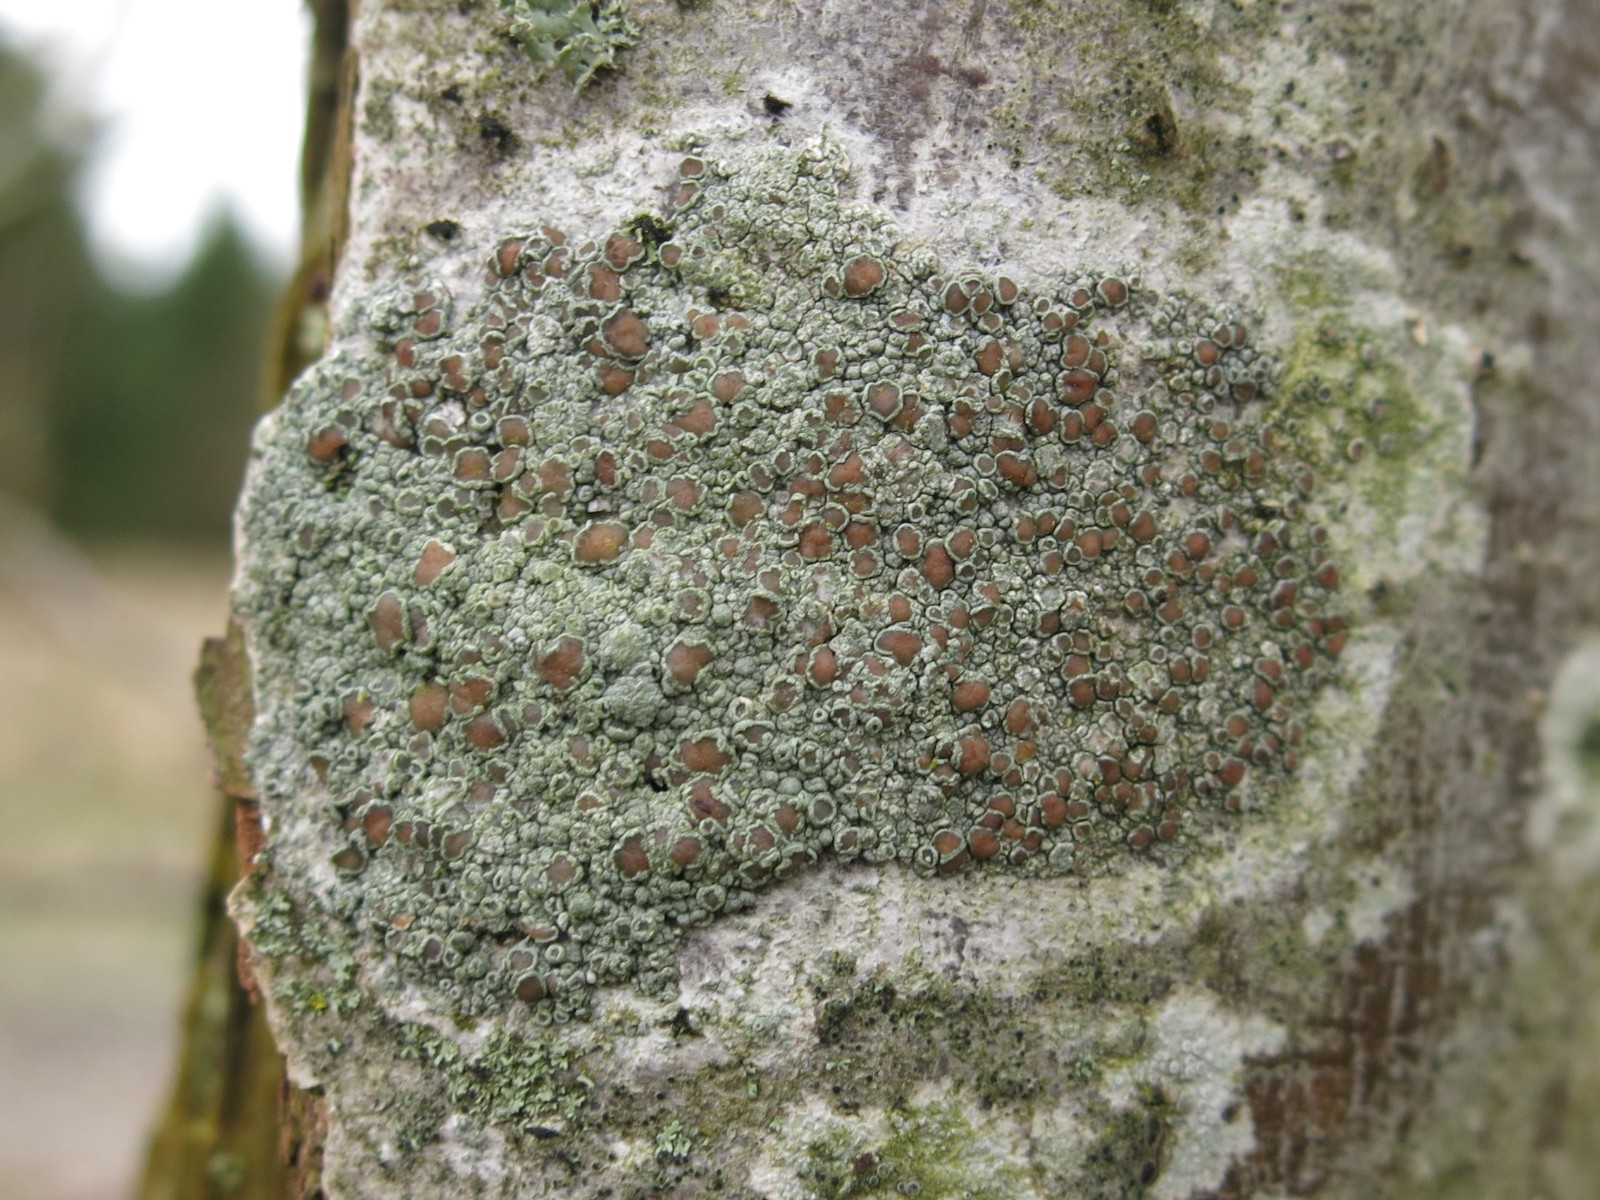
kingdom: Fungi
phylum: Ascomycota
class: Lecanoromycetes
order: Lecanorales
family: Lecanoraceae
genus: Lecanora
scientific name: Lecanora chlarotera
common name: brun kantskivelav
